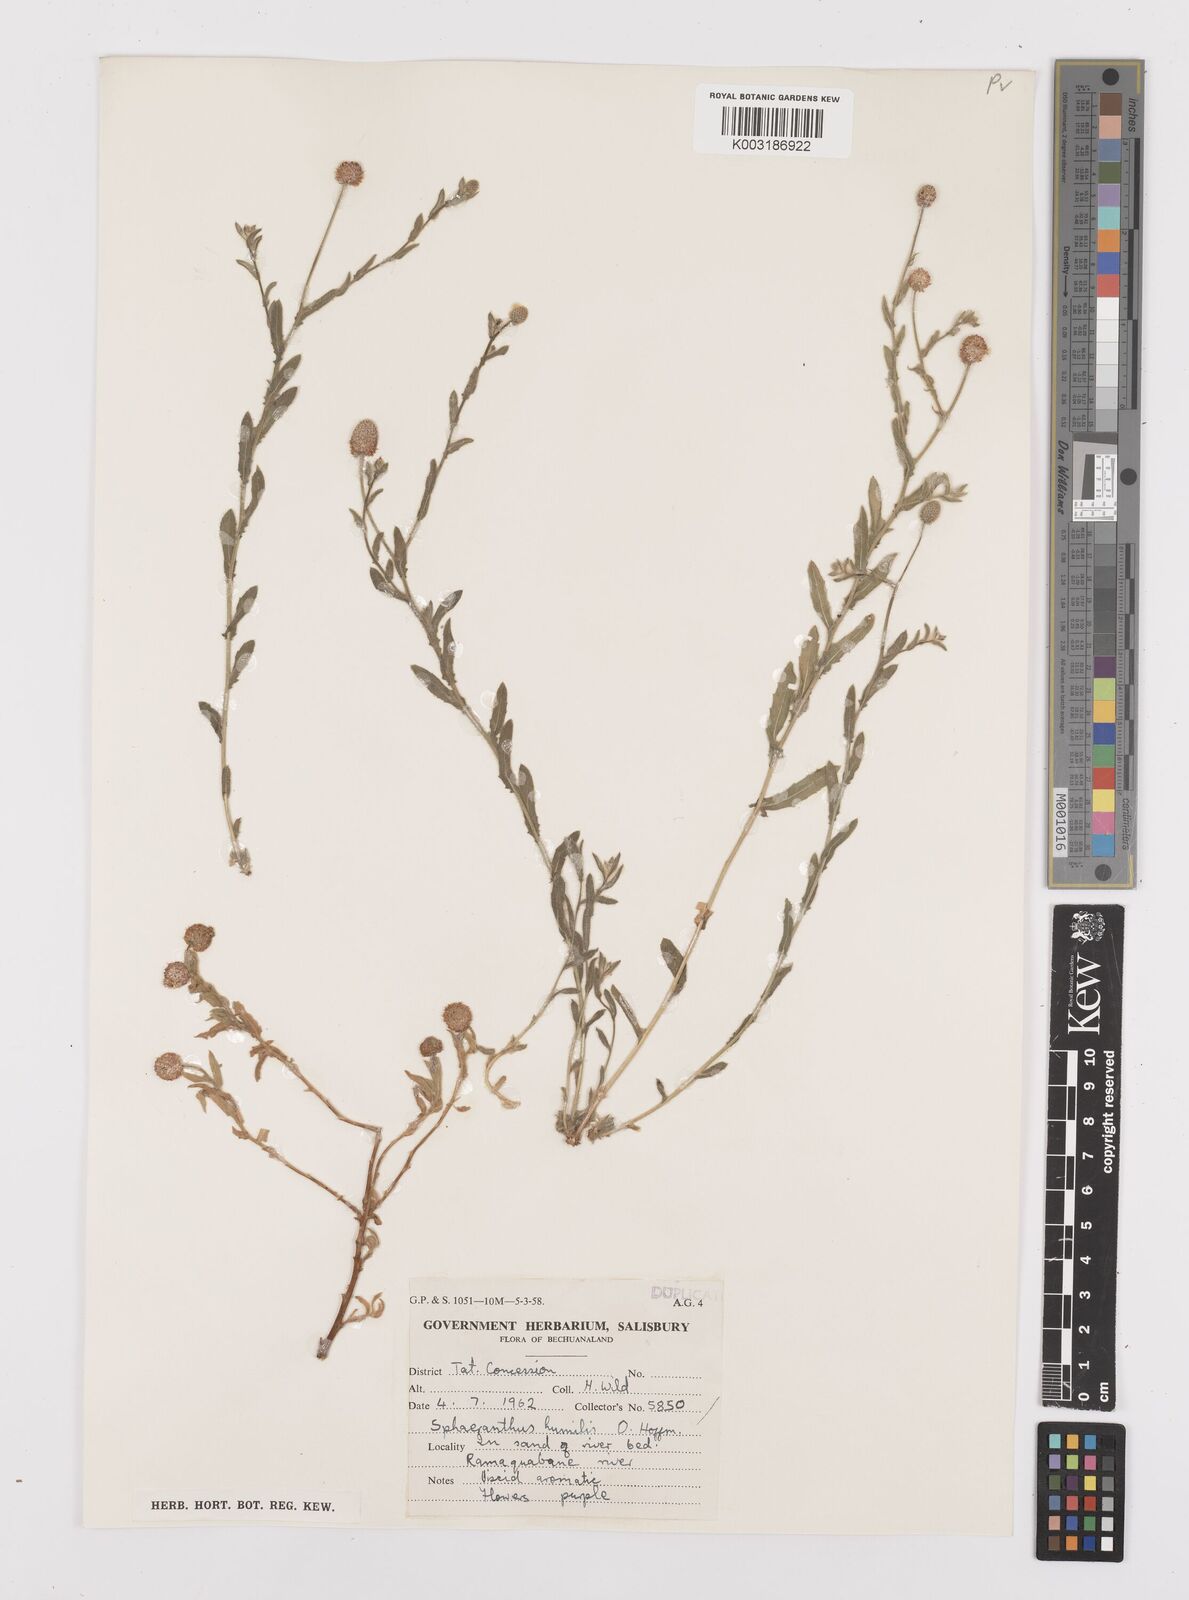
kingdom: Plantae
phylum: Tracheophyta
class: Magnoliopsida
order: Asterales
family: Asteraceae
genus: Sphaeranthus
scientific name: Sphaeranthus flexuosus
